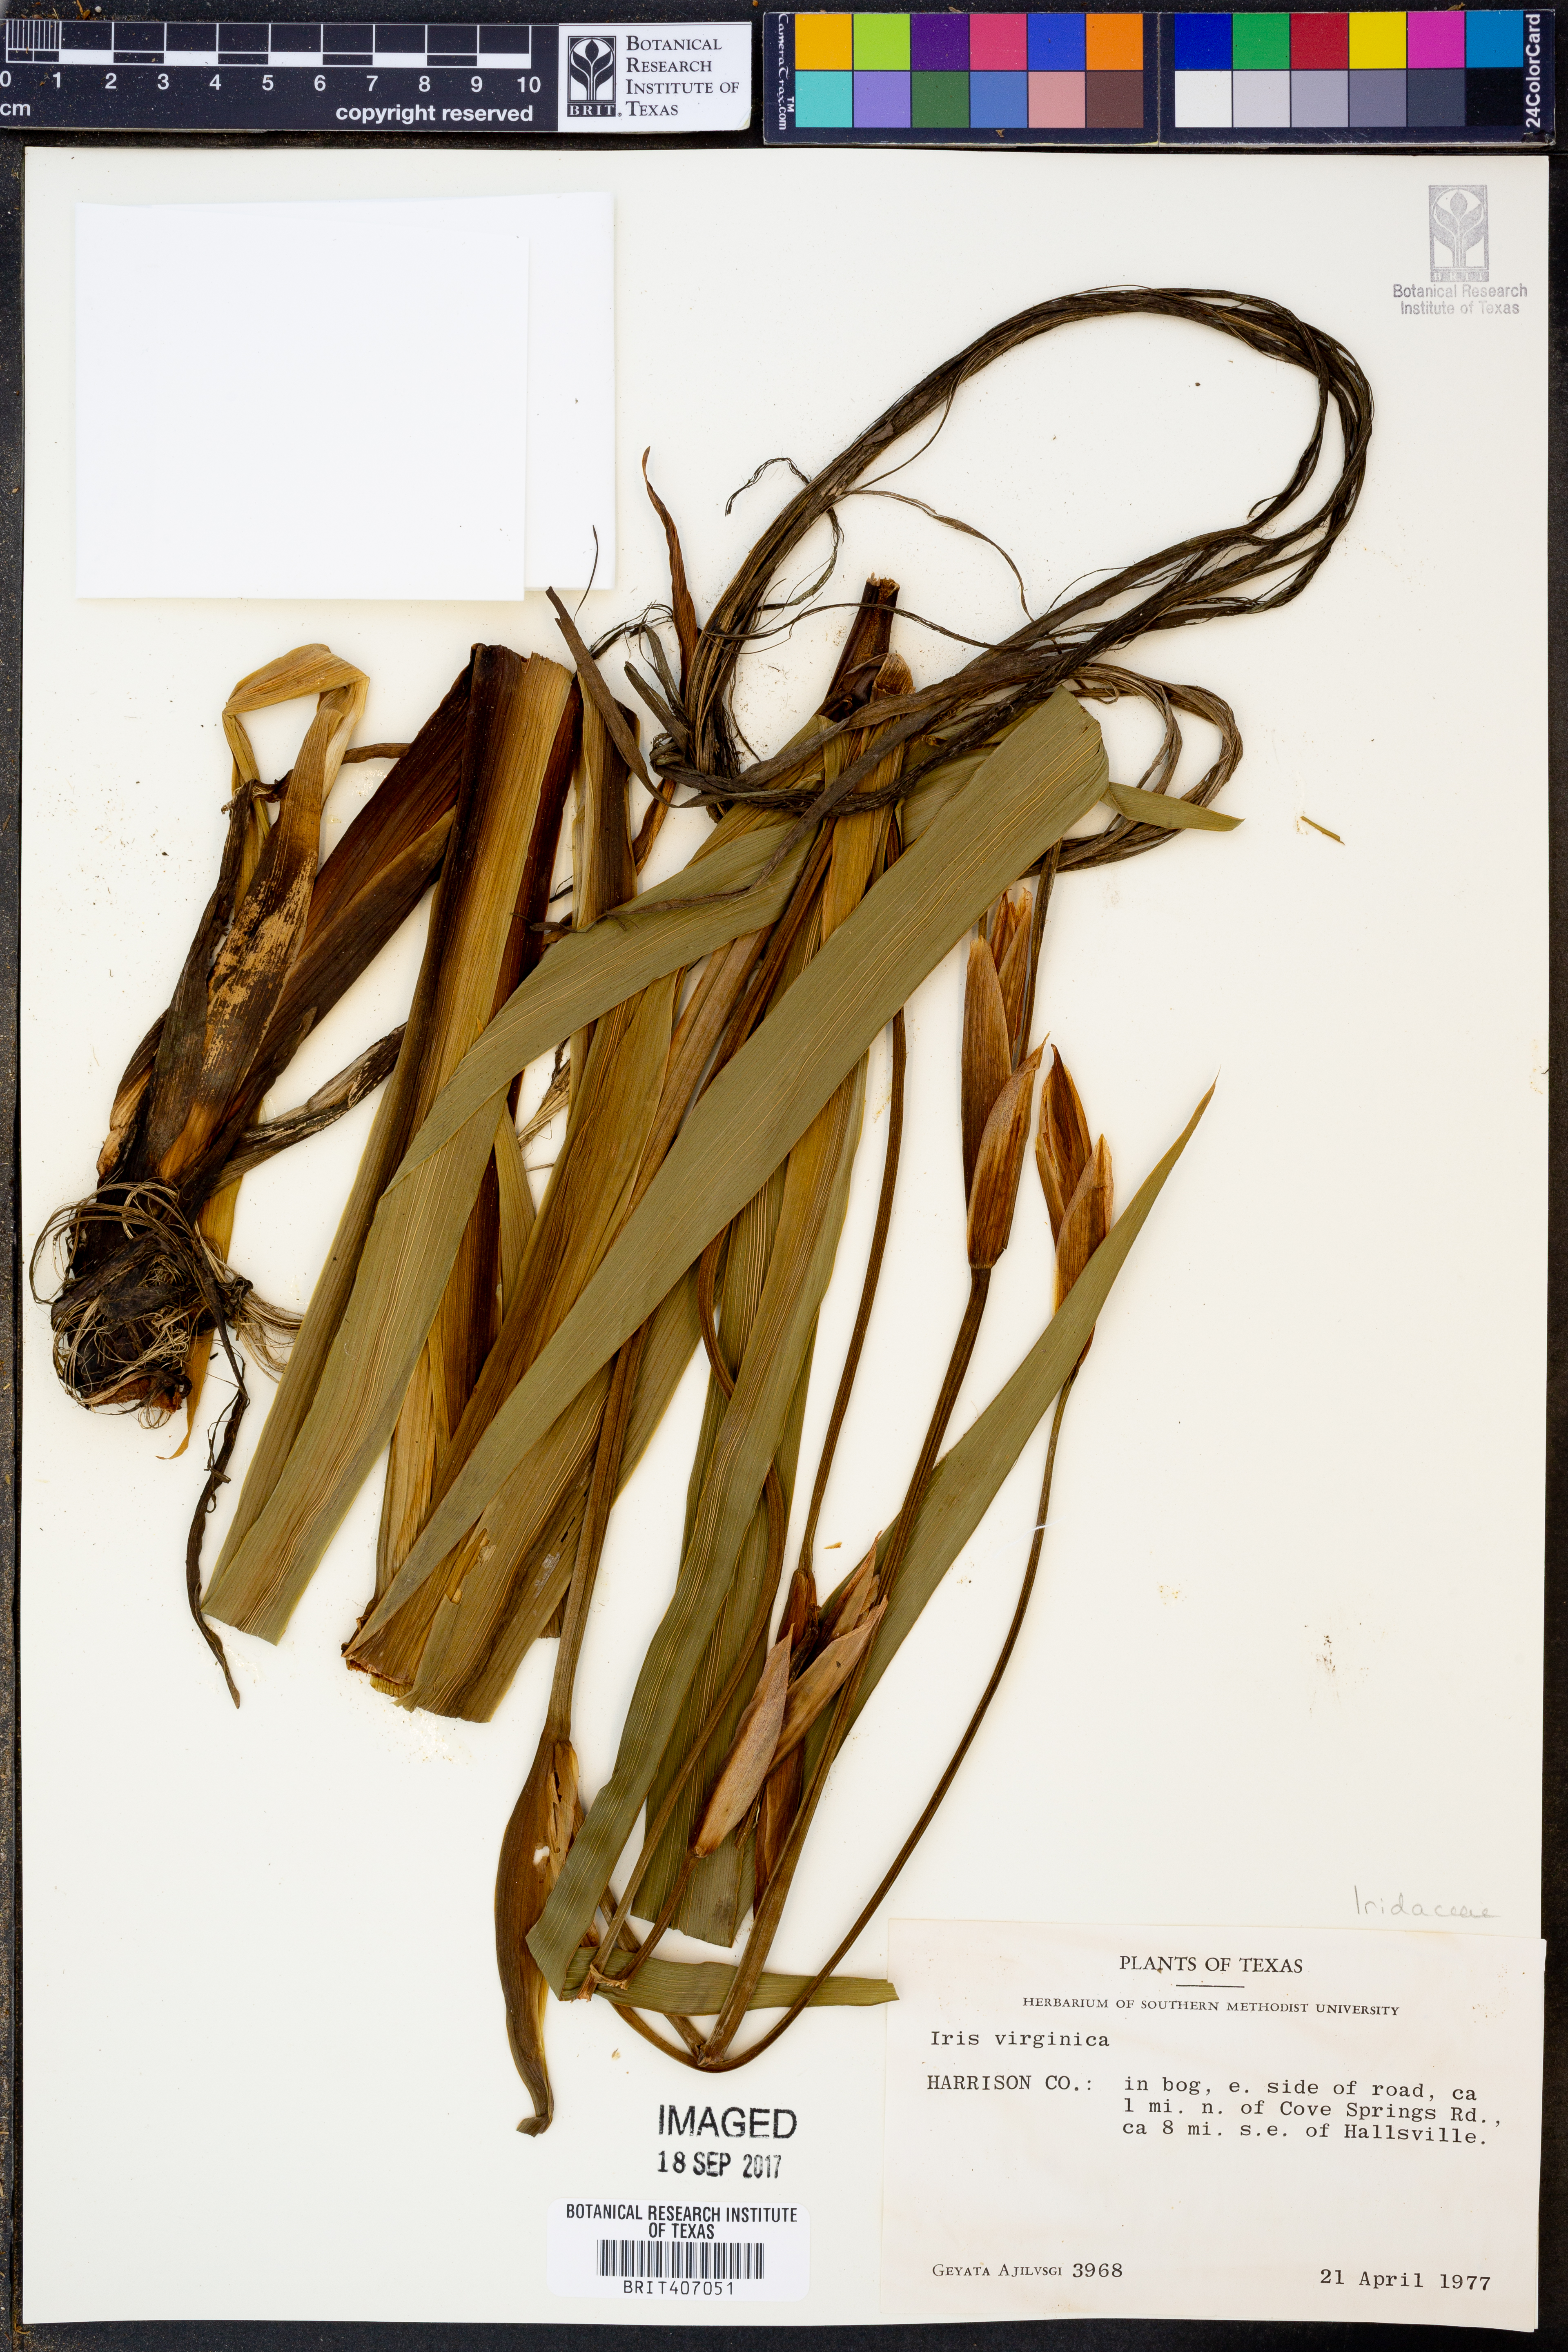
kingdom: Plantae
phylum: Tracheophyta
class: Liliopsida
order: Asparagales
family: Iridaceae
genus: Iris
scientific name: Iris virginica
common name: Southern blue flag
